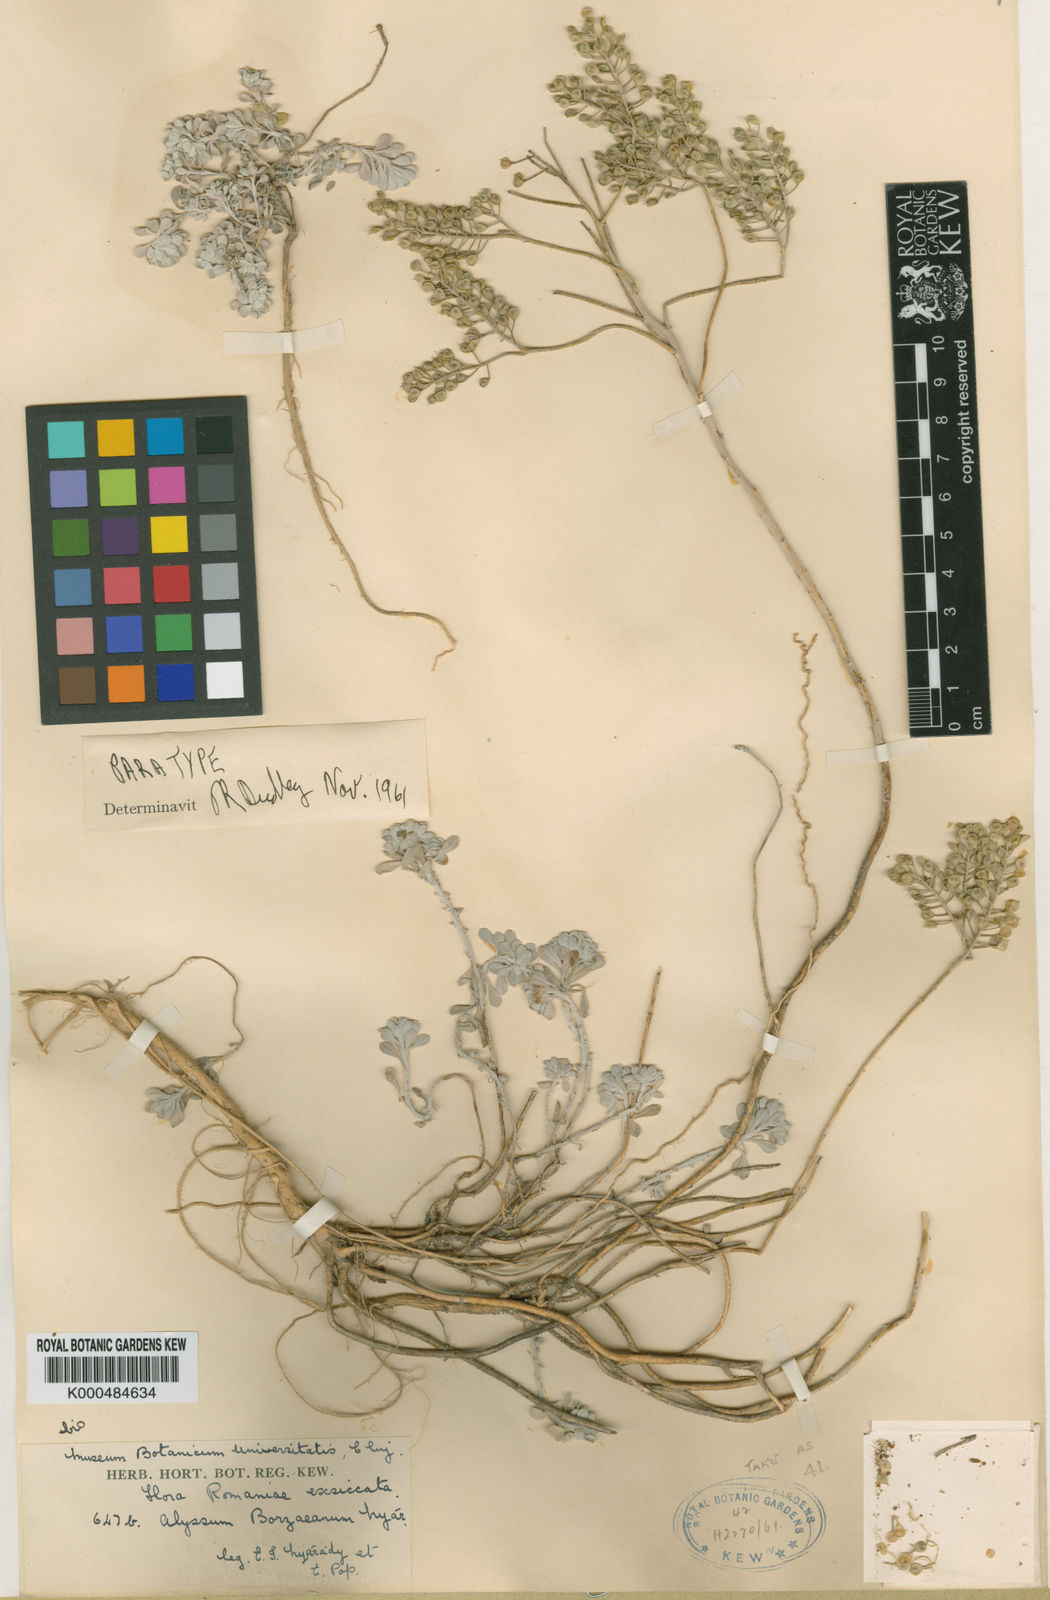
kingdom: Plantae
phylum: Tracheophyta
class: Magnoliopsida
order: Brassicales
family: Brassicaceae
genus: Odontarrhena
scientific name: Odontarrhena borzeana
